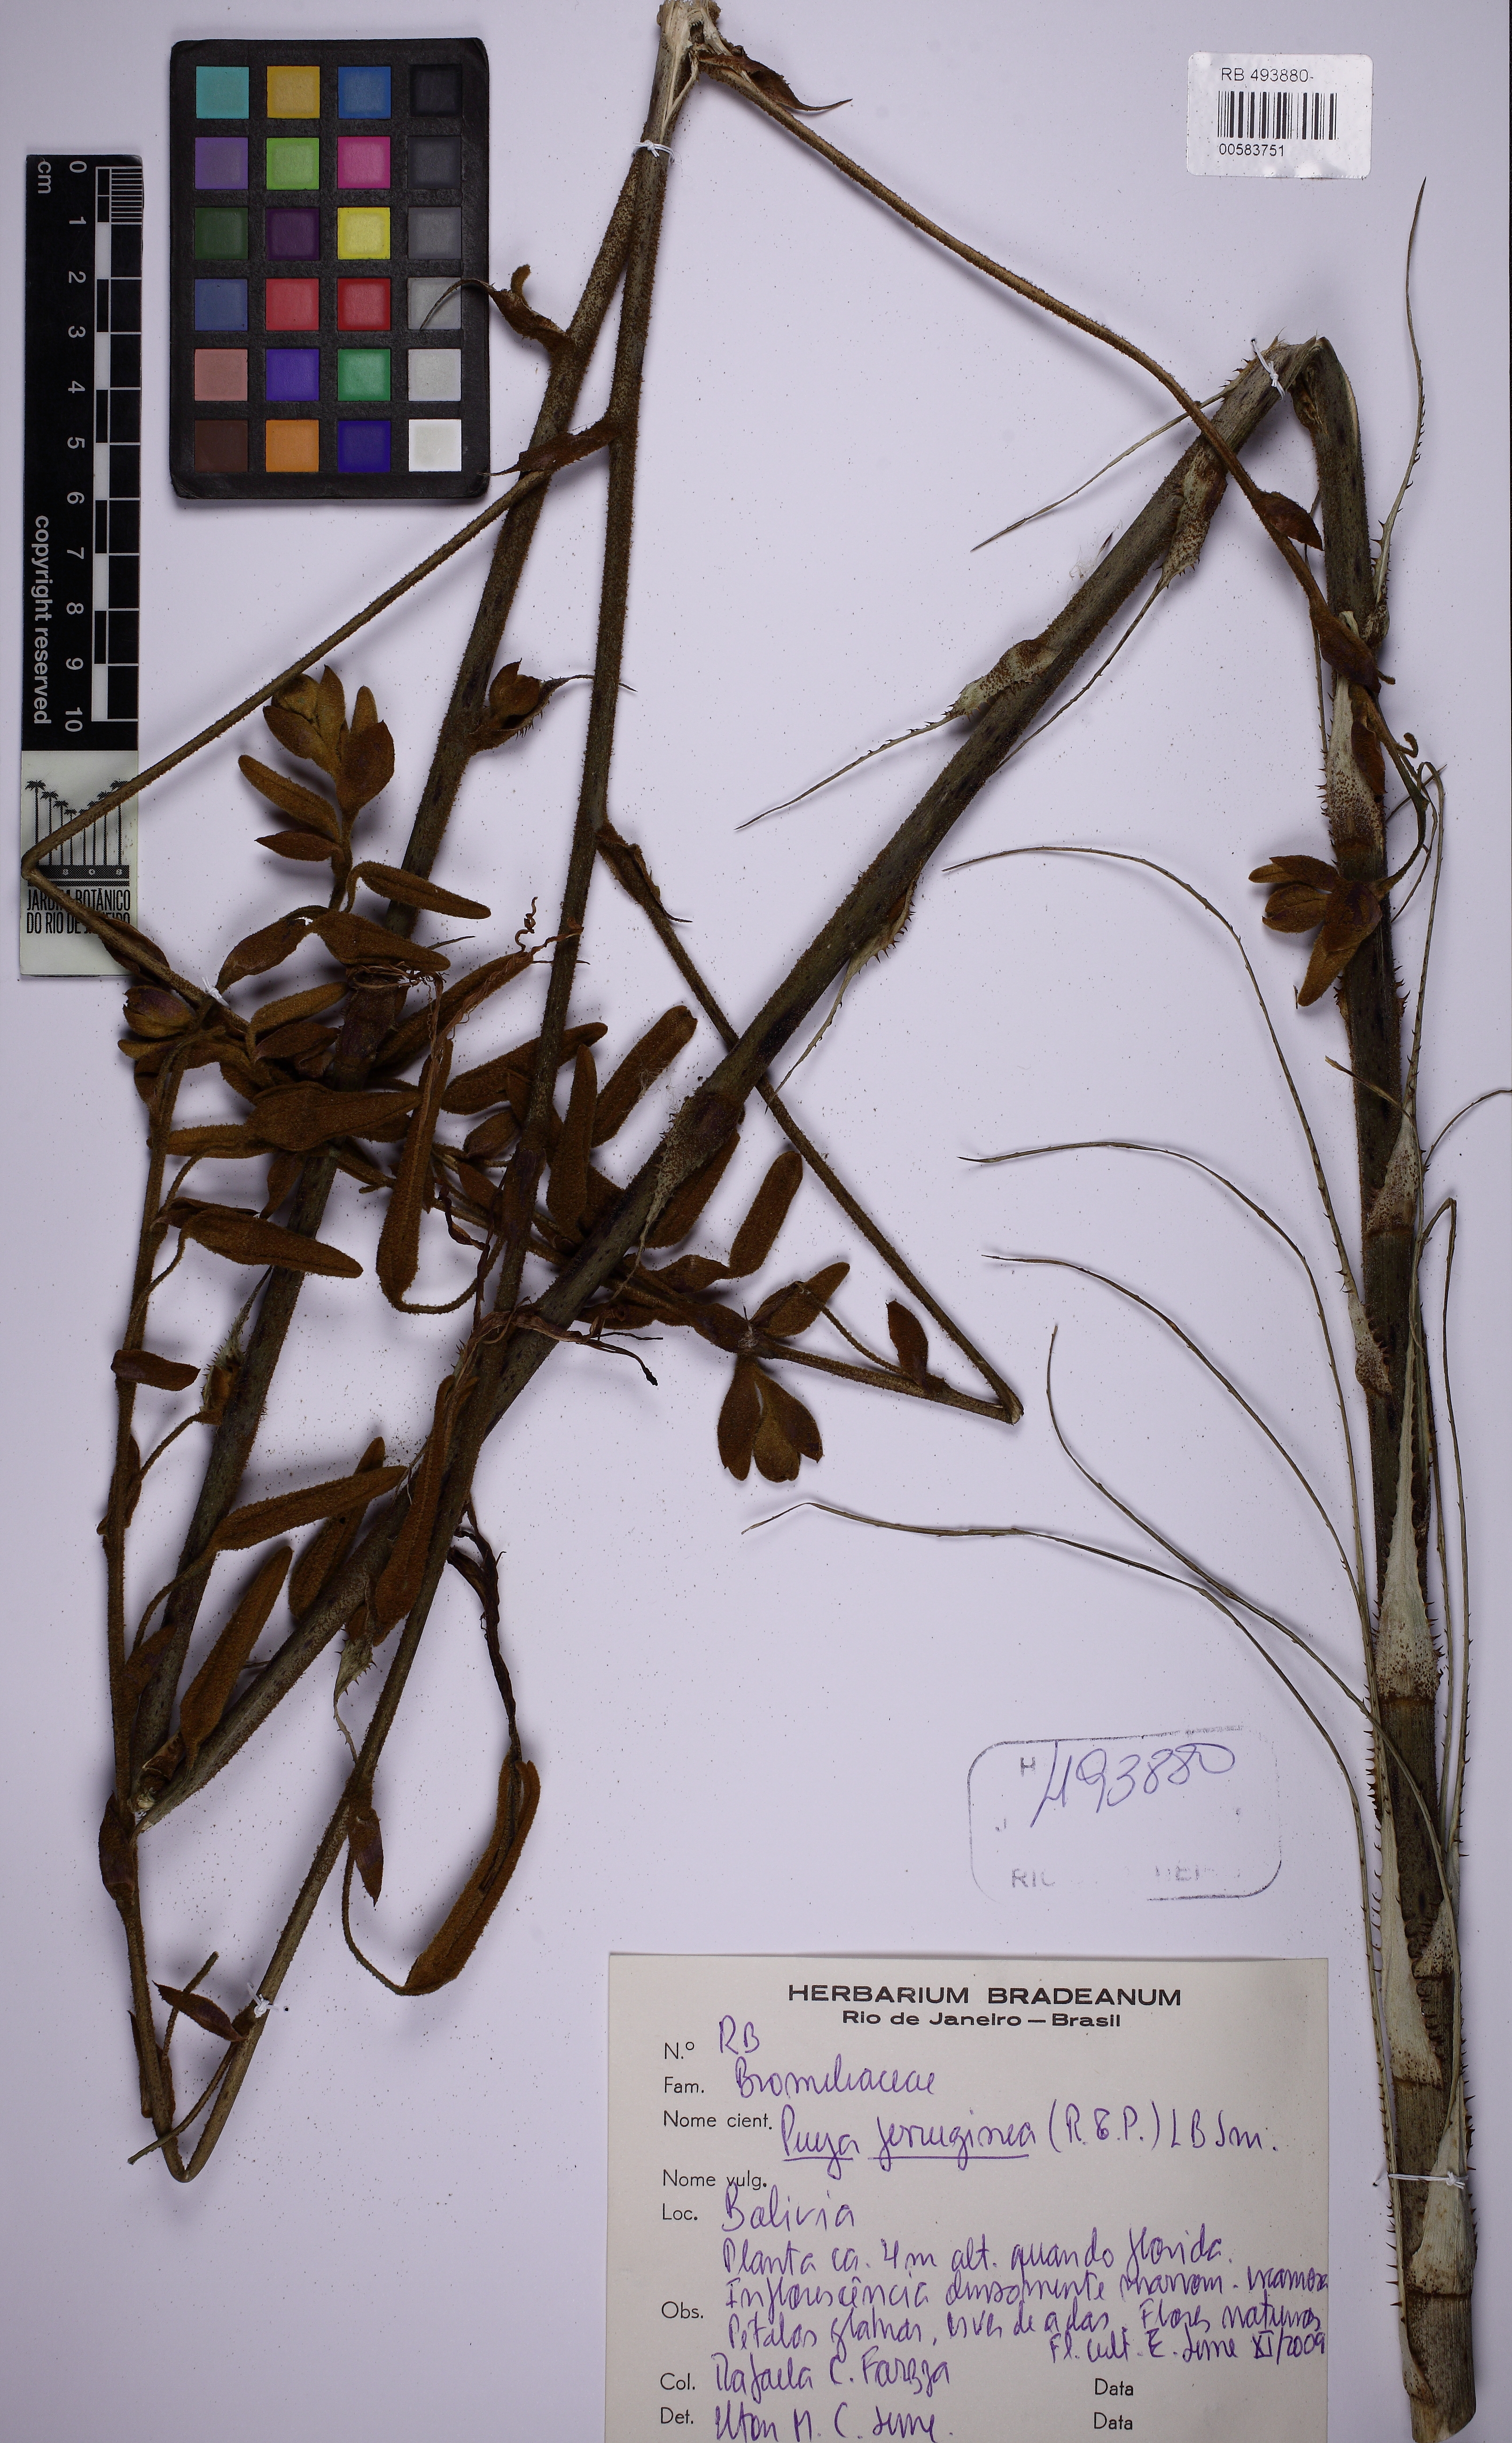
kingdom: Plantae
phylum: Tracheophyta
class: Liliopsida
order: Poales
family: Bromeliaceae
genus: Puya
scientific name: Puya ferruginea
